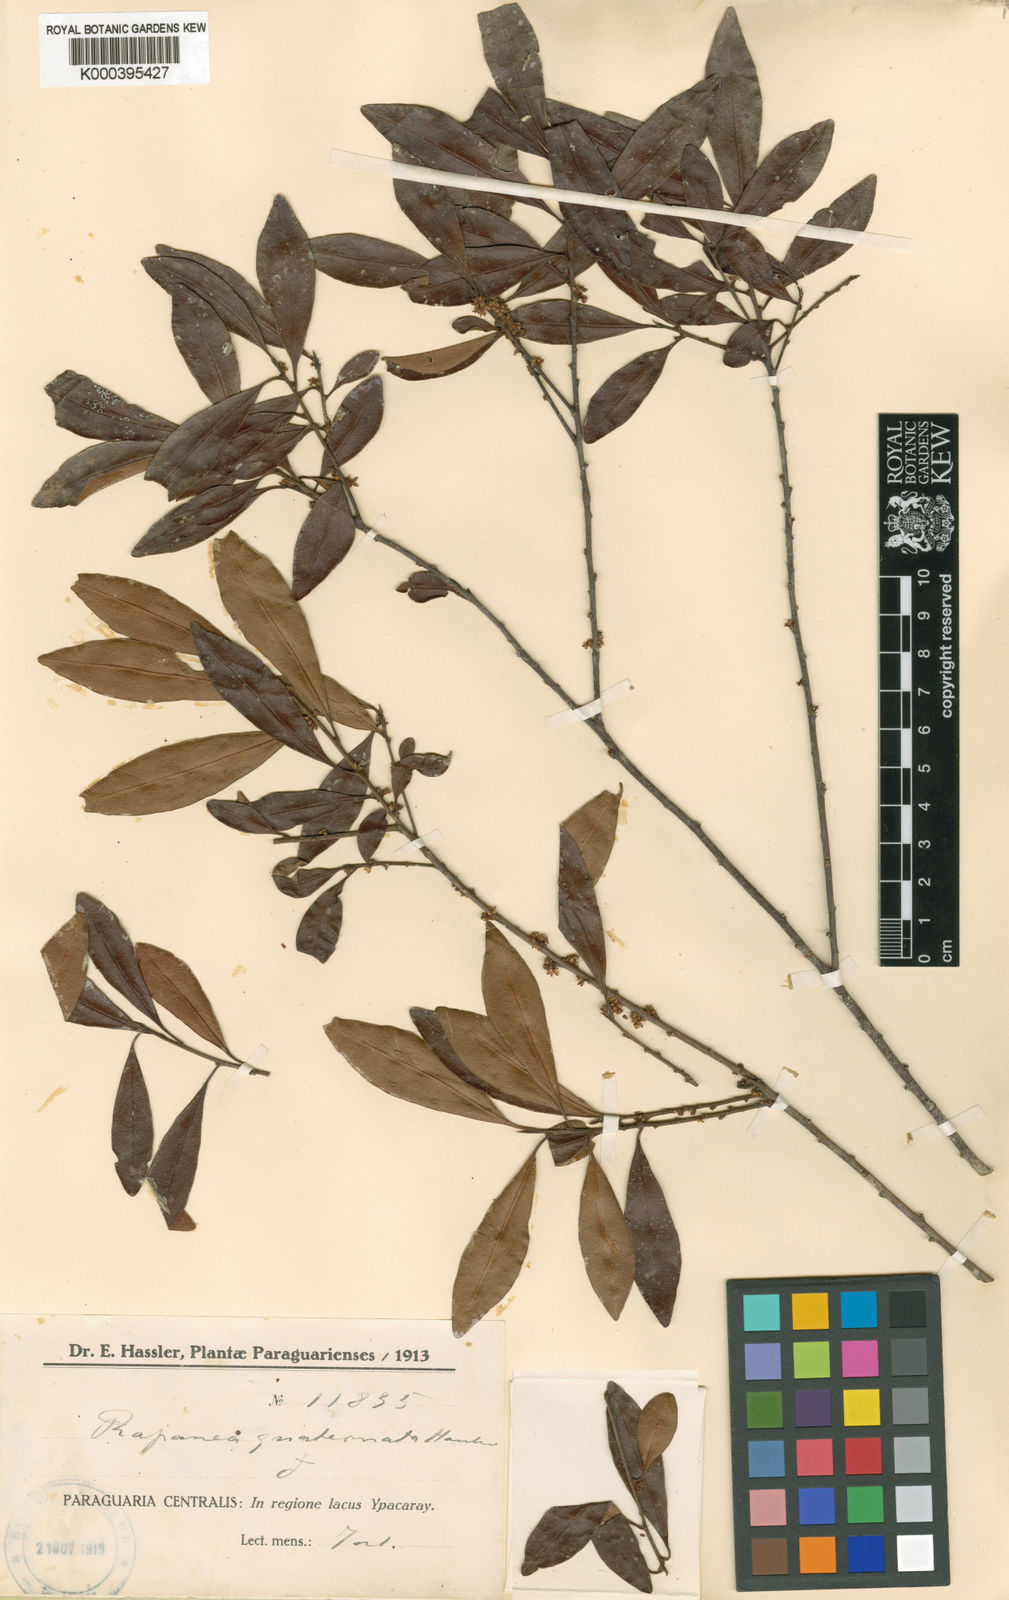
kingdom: Plantae
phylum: Tracheophyta
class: Magnoliopsida
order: Ericales
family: Primulaceae
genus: Myrsine
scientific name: Myrsine
